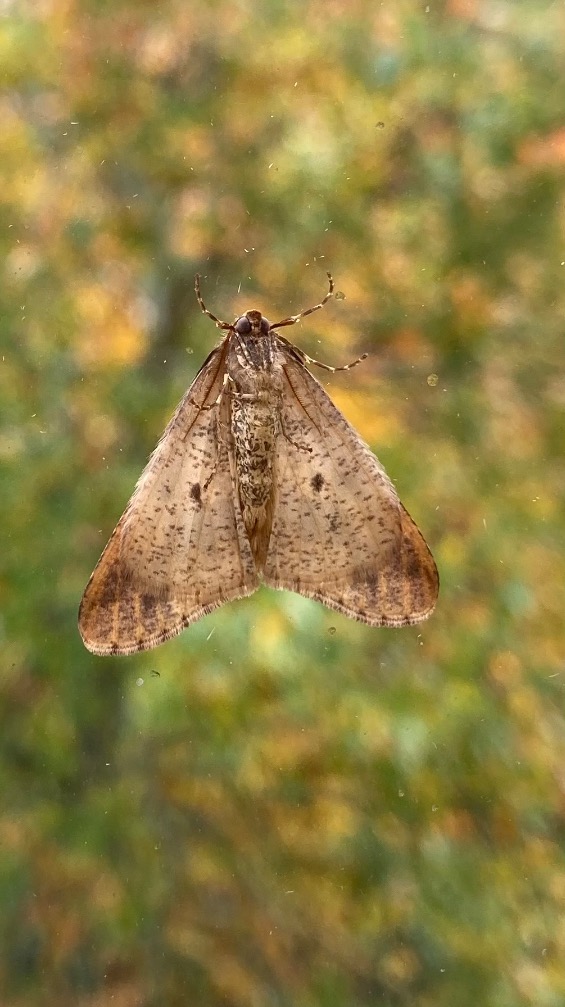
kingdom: Animalia
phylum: Arthropoda
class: Insecta
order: Lepidoptera
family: Geometridae
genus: Erannis
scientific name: Erannis defoliaria
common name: Stor frostmåler
